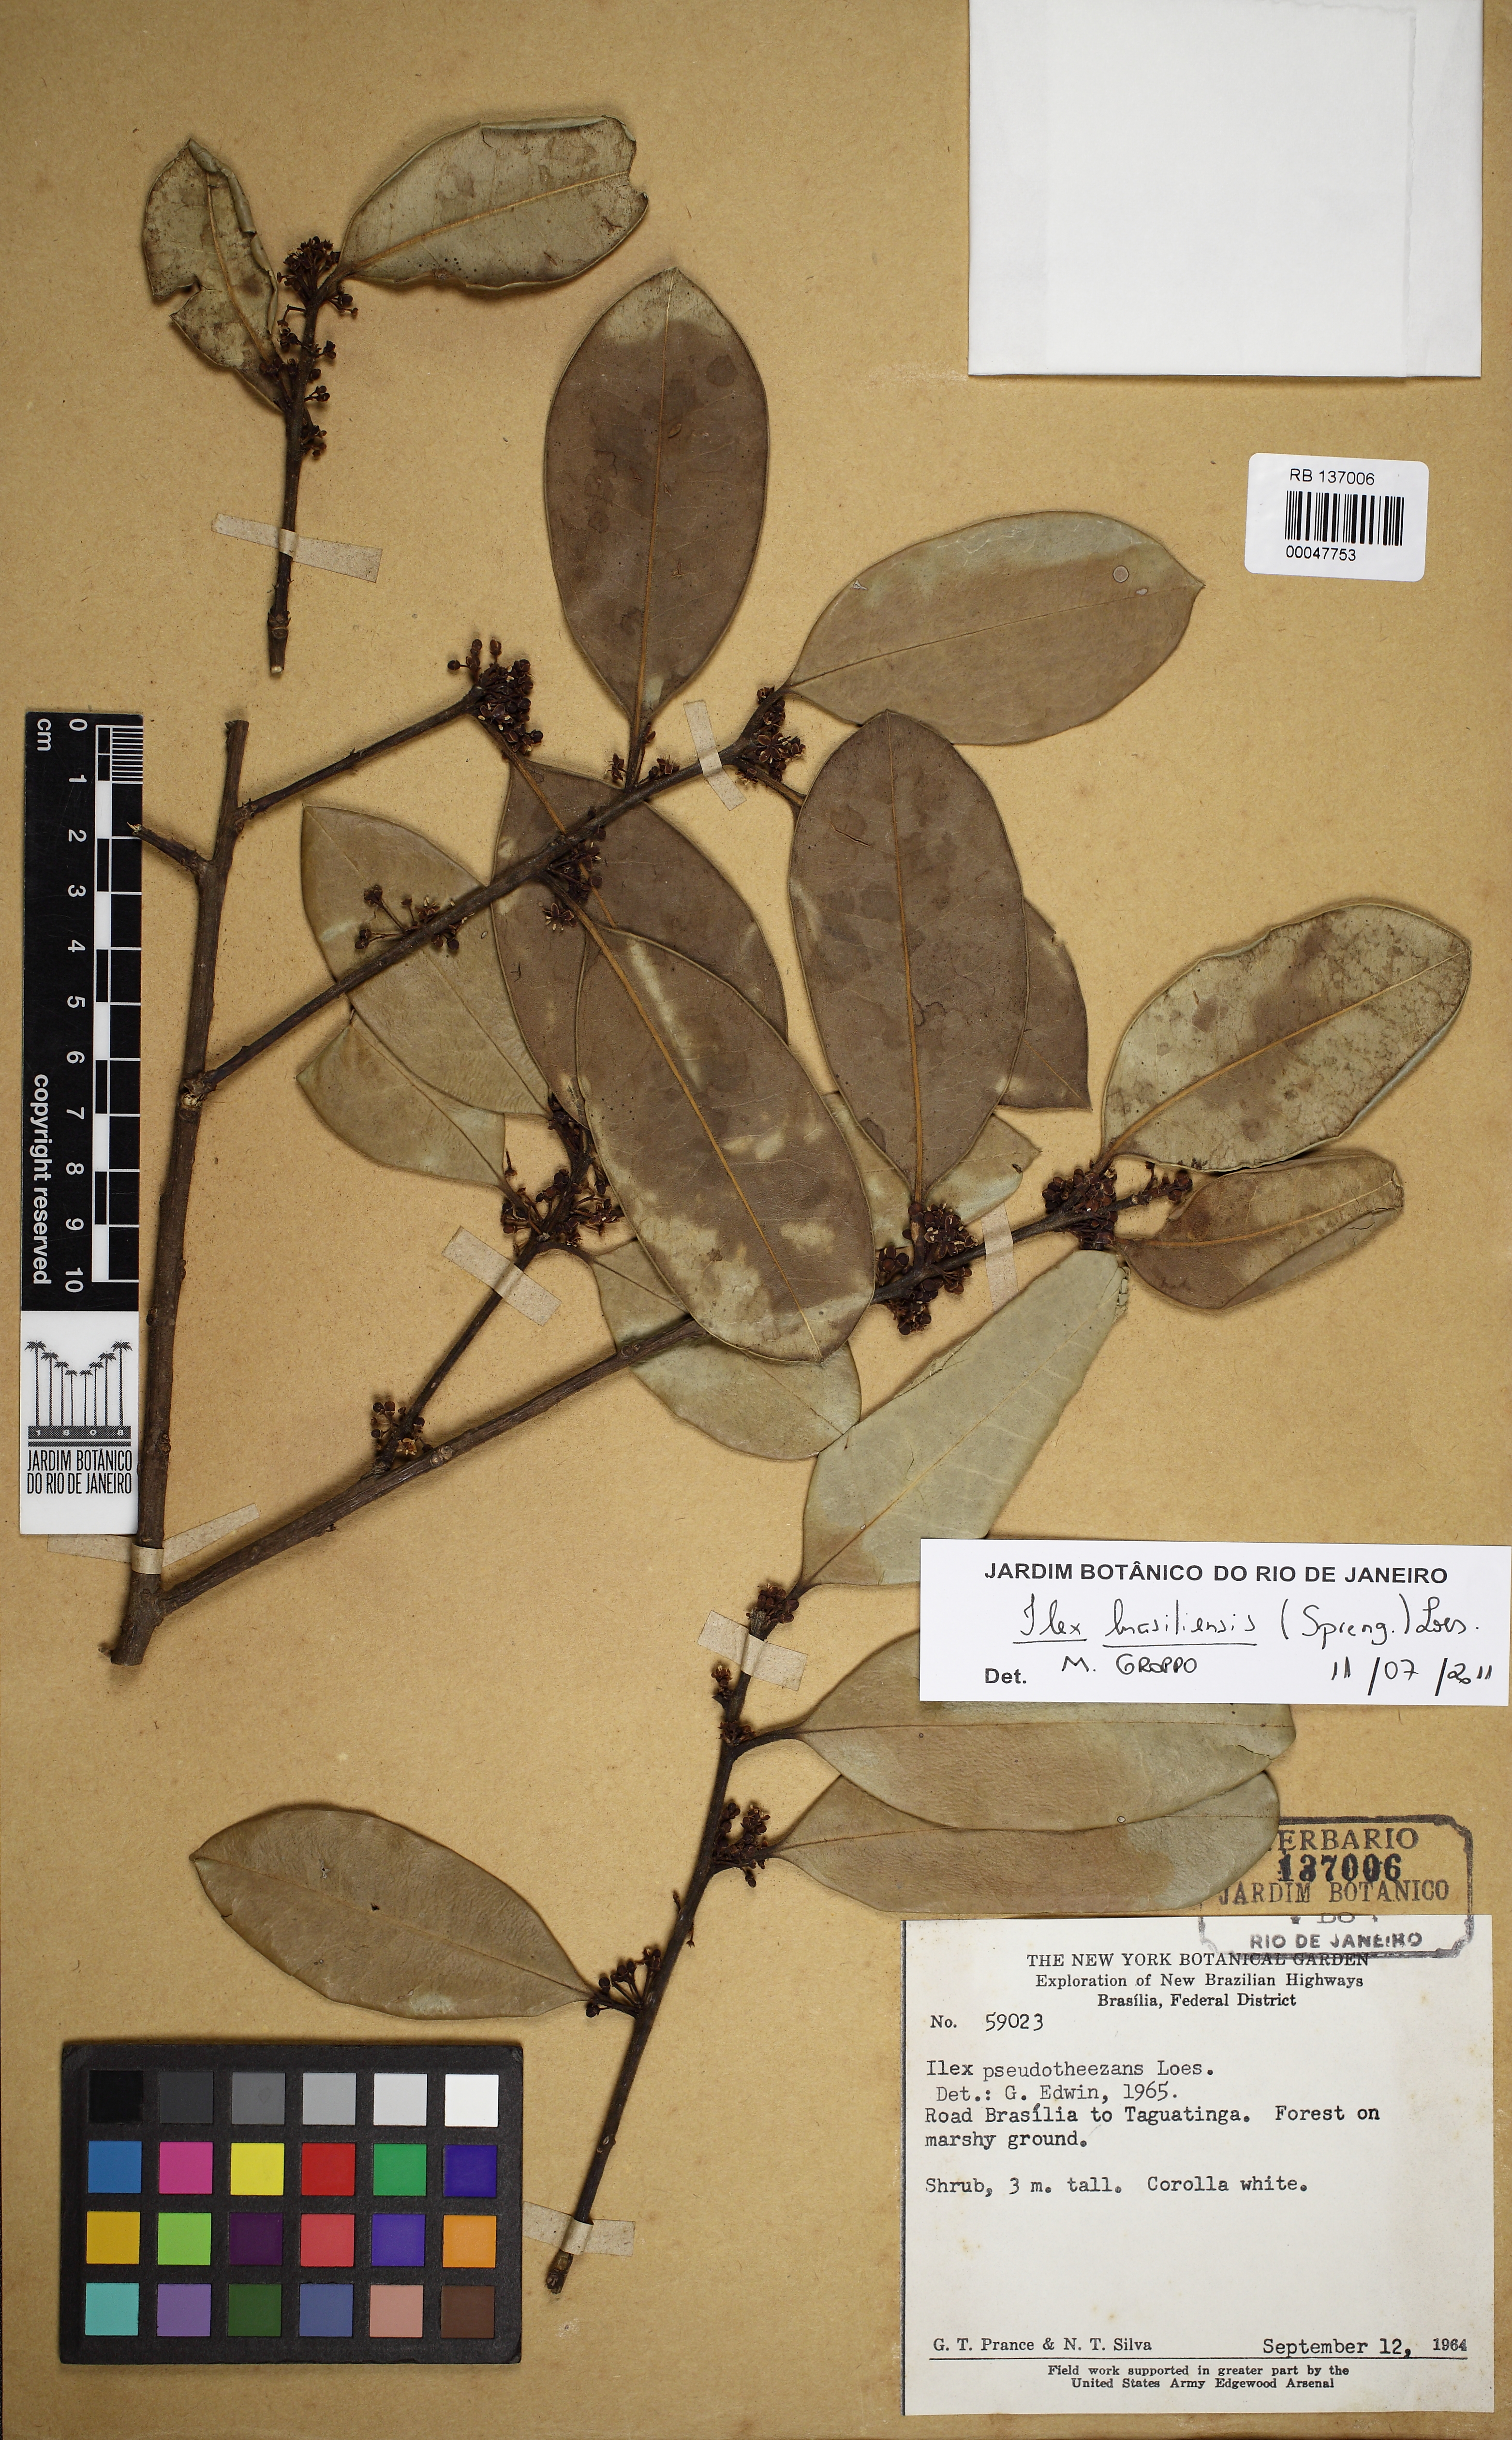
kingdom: Plantae
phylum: Tracheophyta
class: Magnoliopsida
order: Aquifoliales
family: Aquifoliaceae
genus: Ilex
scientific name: Ilex brasiliensis
